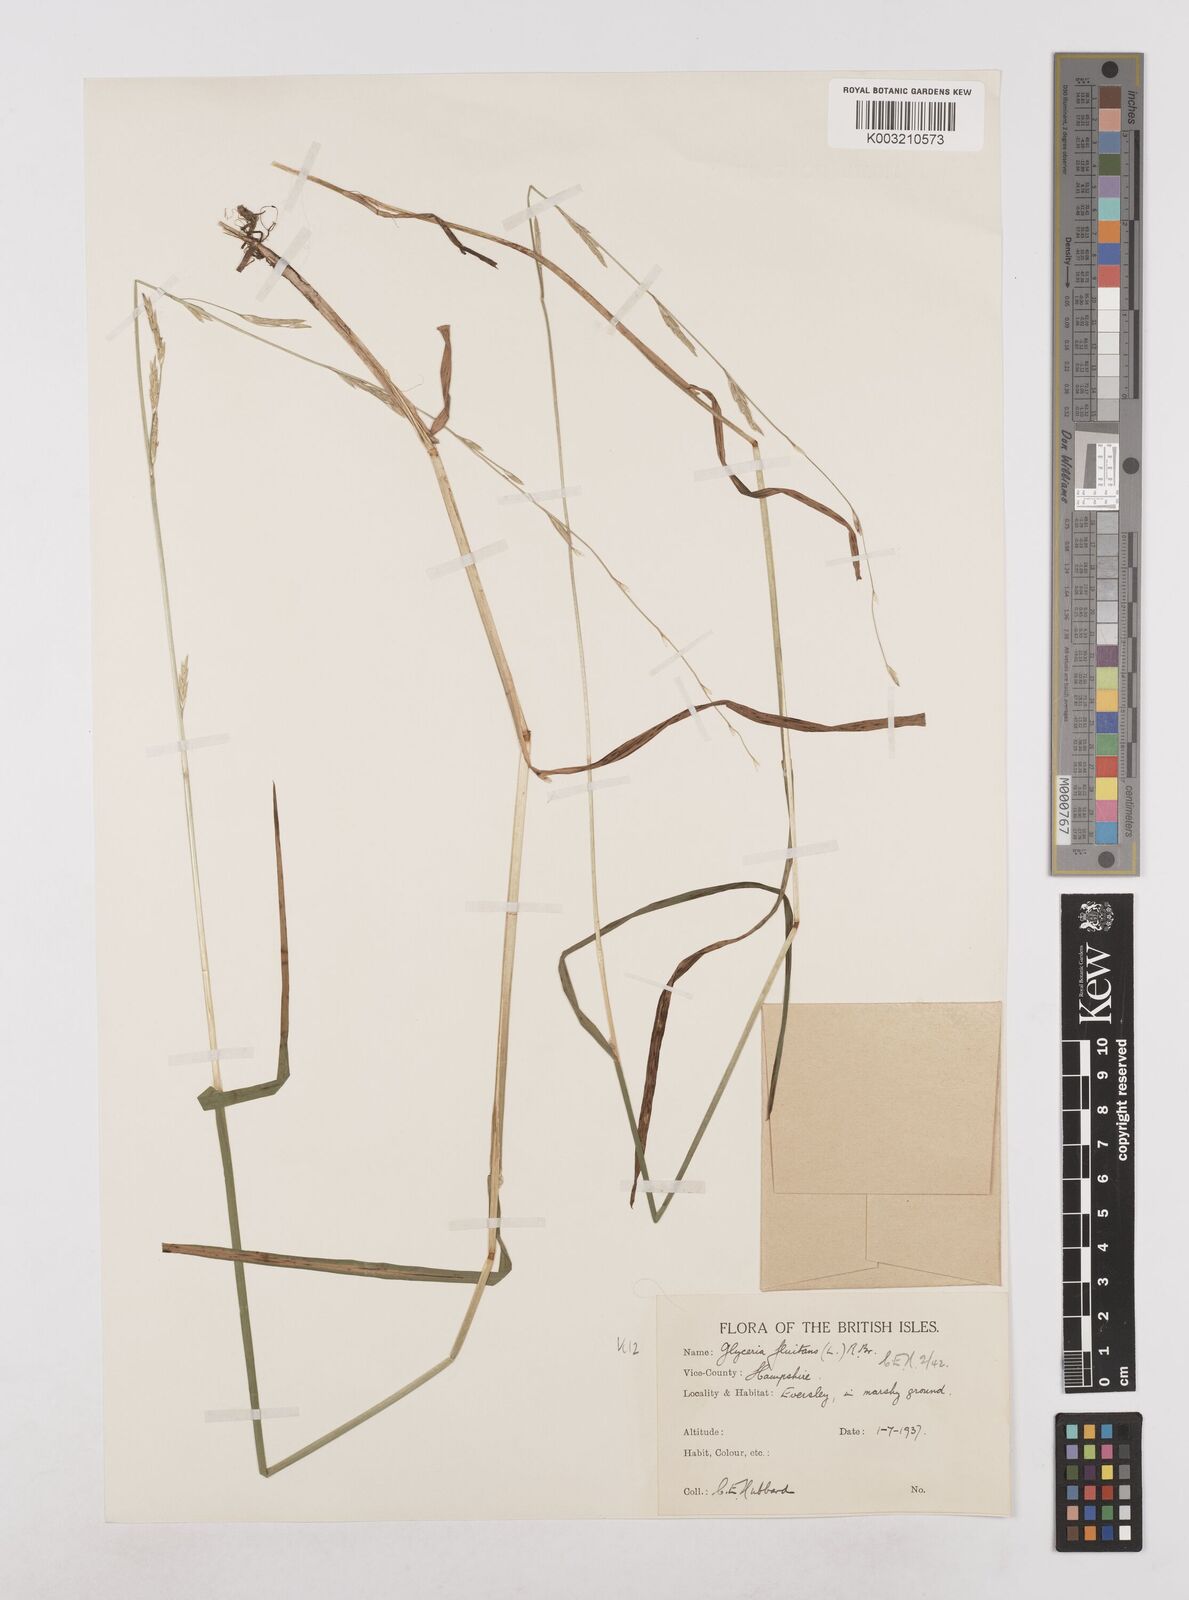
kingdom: Plantae
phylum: Tracheophyta
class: Liliopsida
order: Poales
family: Poaceae
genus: Glyceria
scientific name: Glyceria fluitans
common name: Floating sweet-grass
